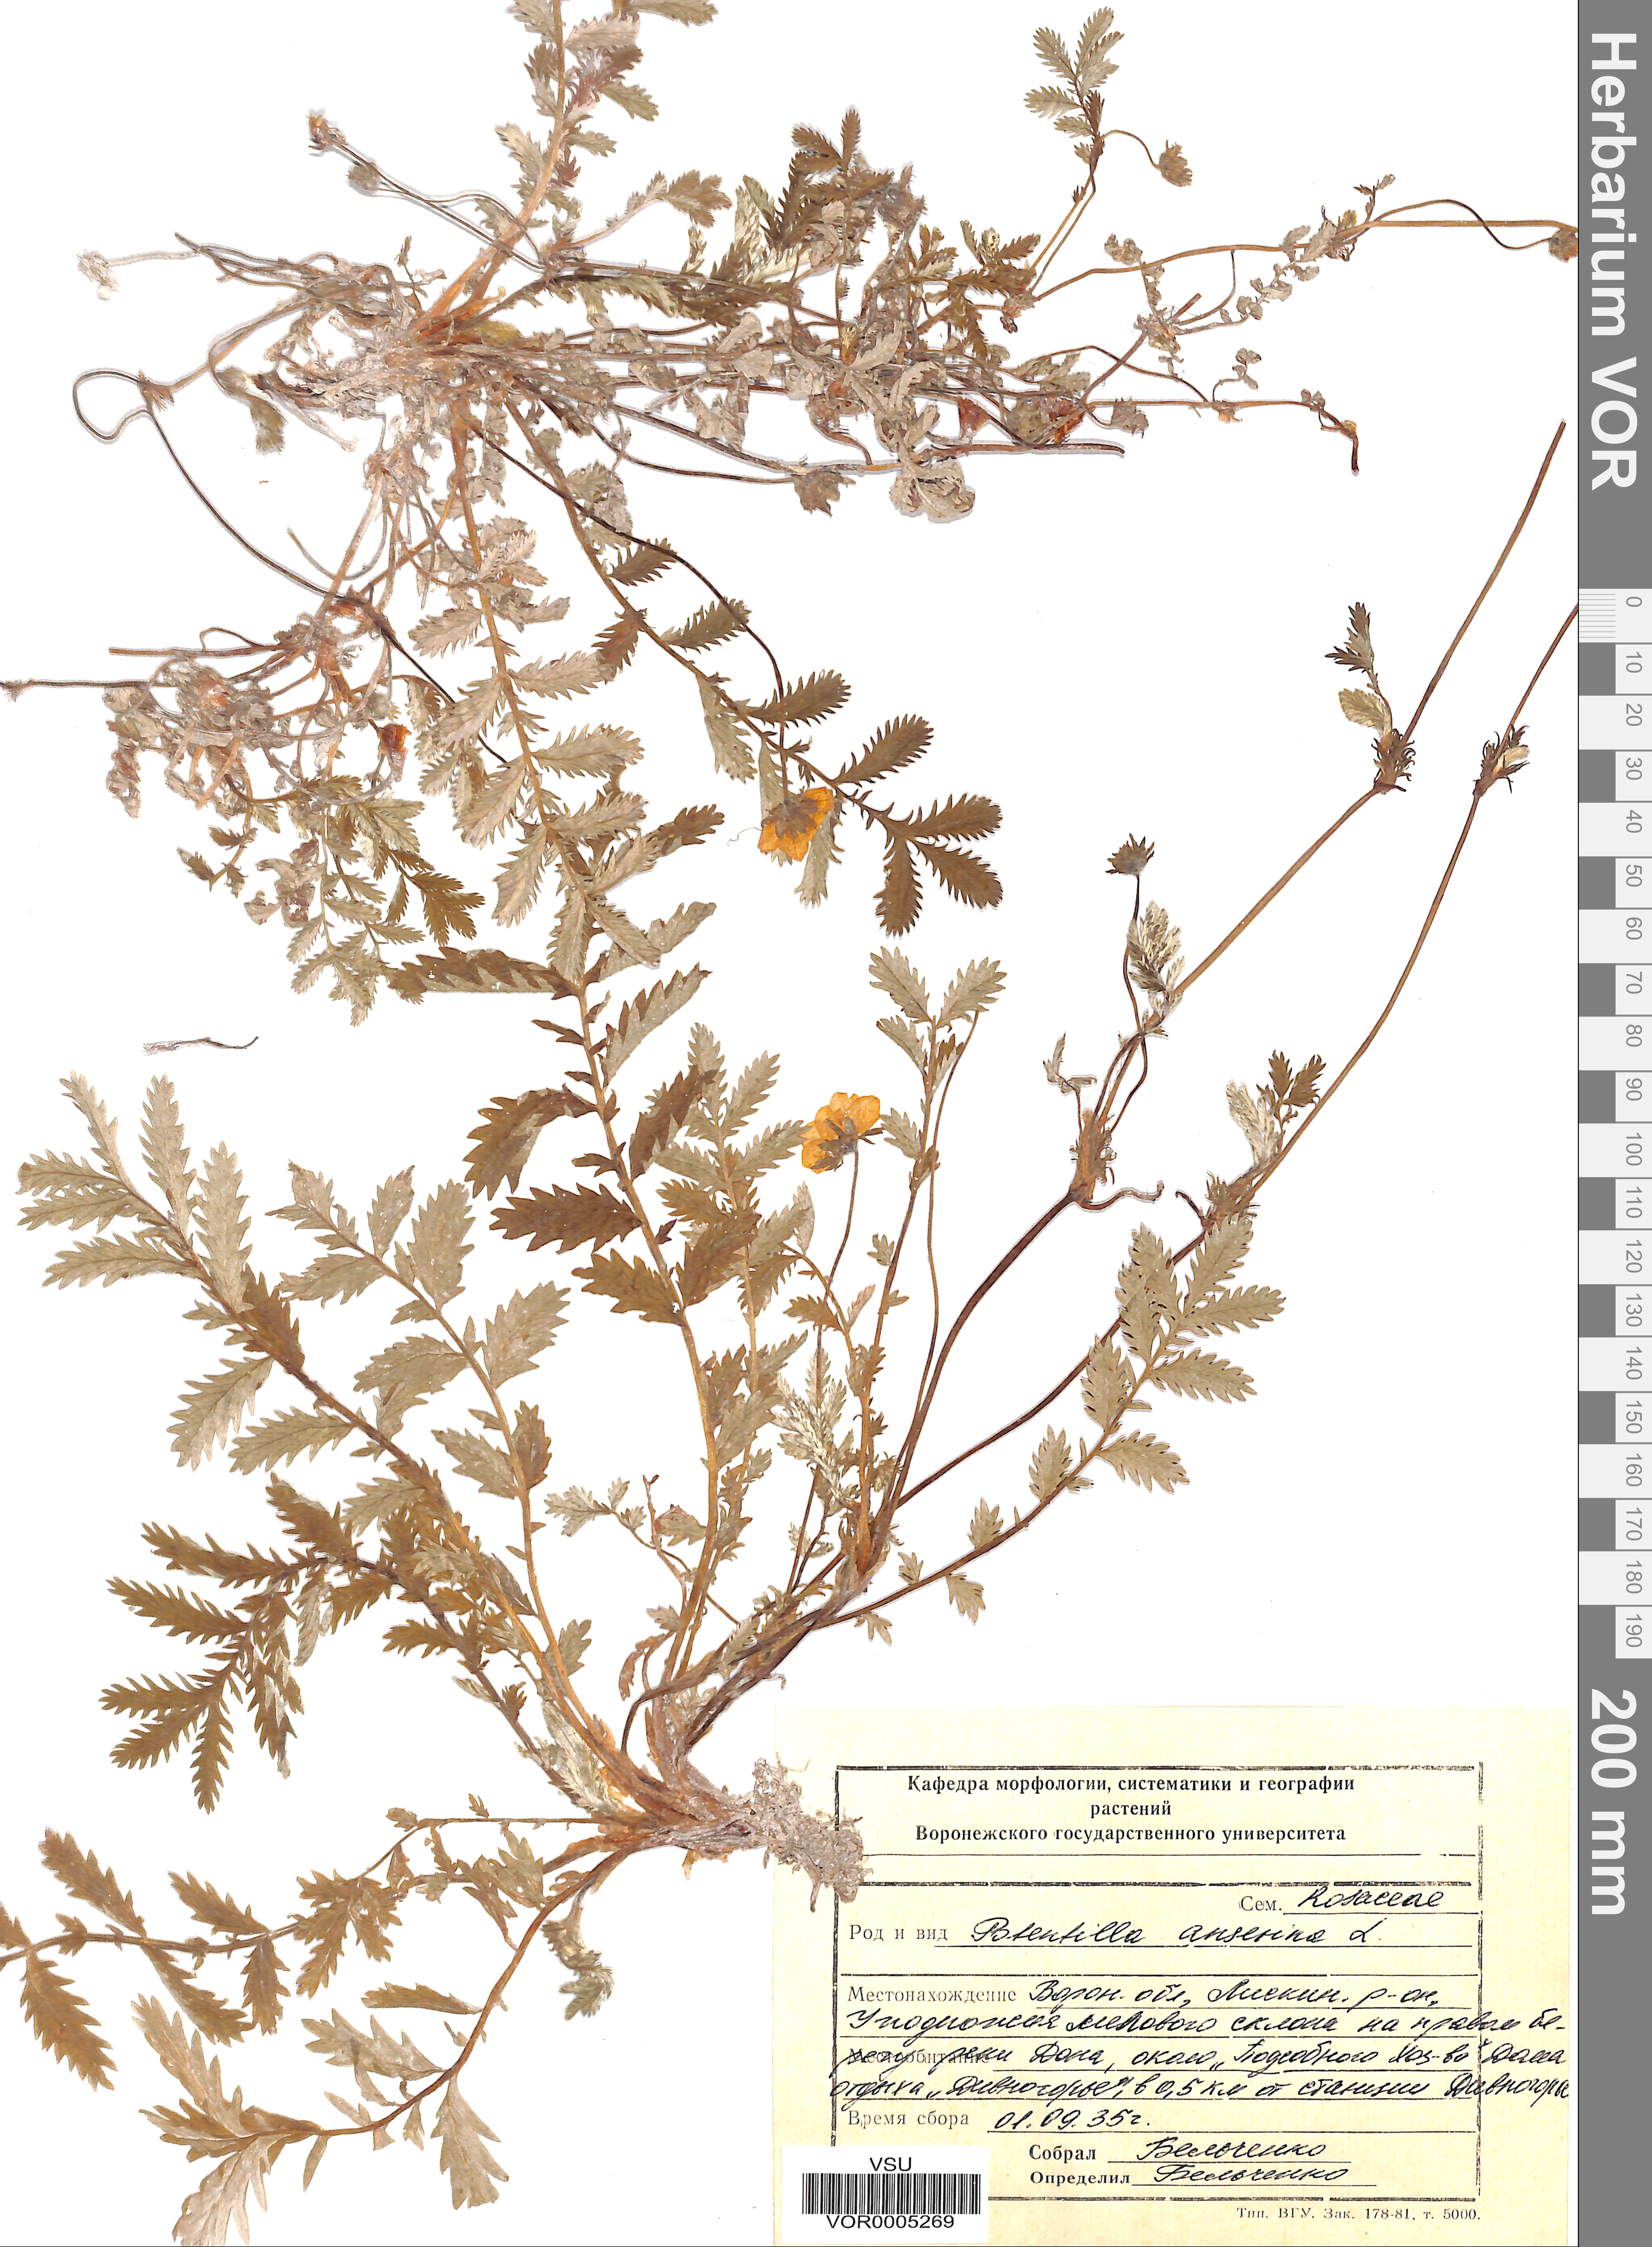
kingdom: Plantae
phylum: Tracheophyta
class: Magnoliopsida
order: Rosales
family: Rosaceae
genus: Argentina
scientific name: Argentina anserina
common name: Common silverweed
